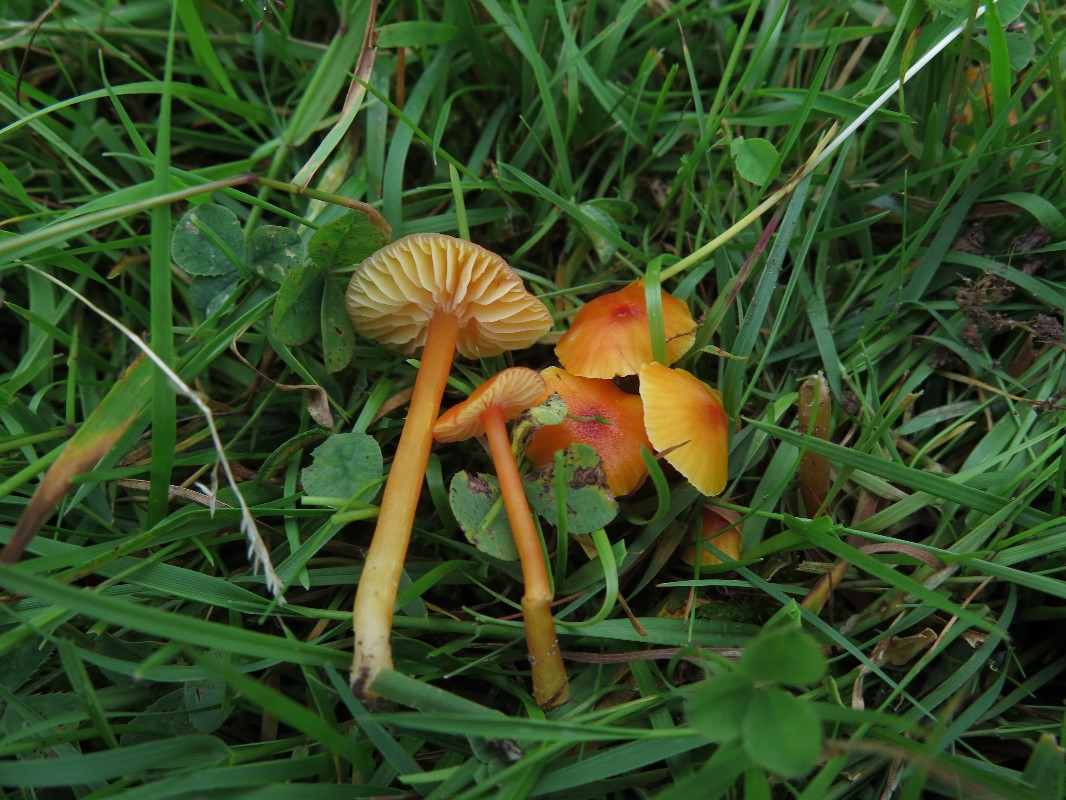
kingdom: Fungi
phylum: Basidiomycota
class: Agaricomycetes
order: Agaricales
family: Hygrophoraceae
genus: Hygrocybe
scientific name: Hygrocybe subpapillata
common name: papil-vokshat
